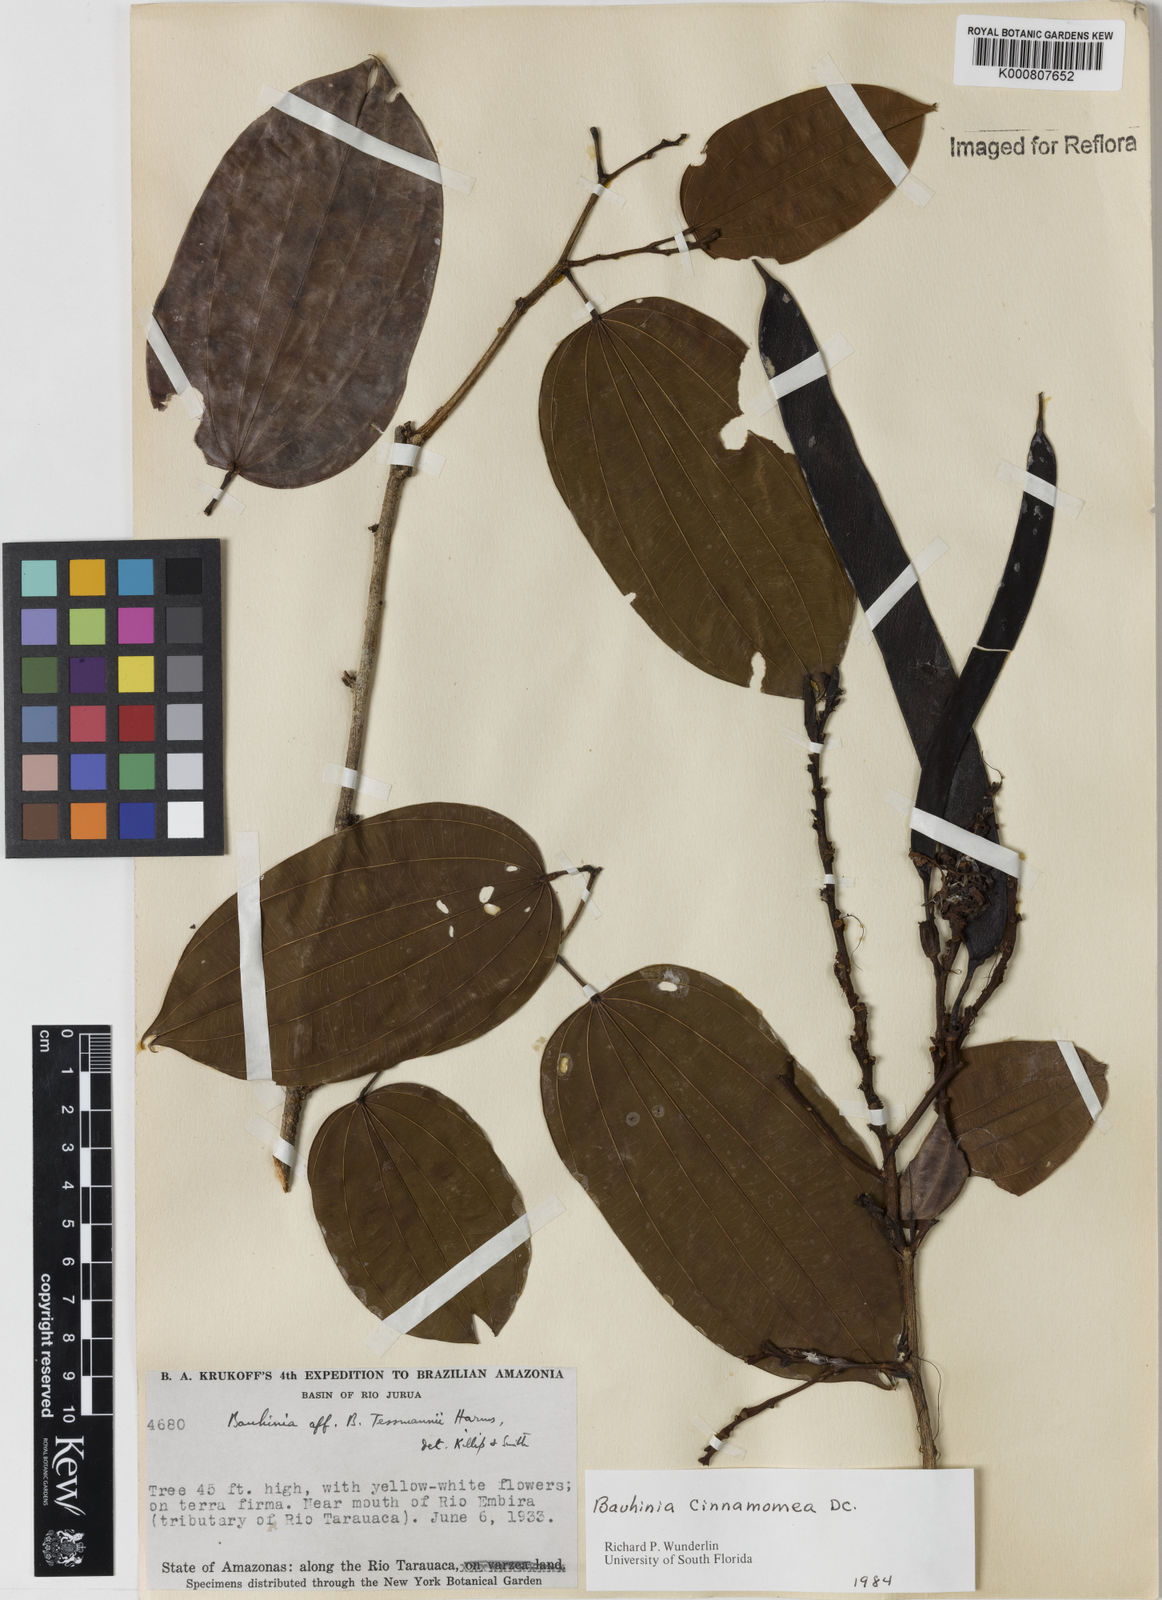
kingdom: Plantae
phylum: Tracheophyta
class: Magnoliopsida
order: Fabales
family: Fabaceae
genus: Bauhinia
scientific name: Bauhinia cinnamomea
